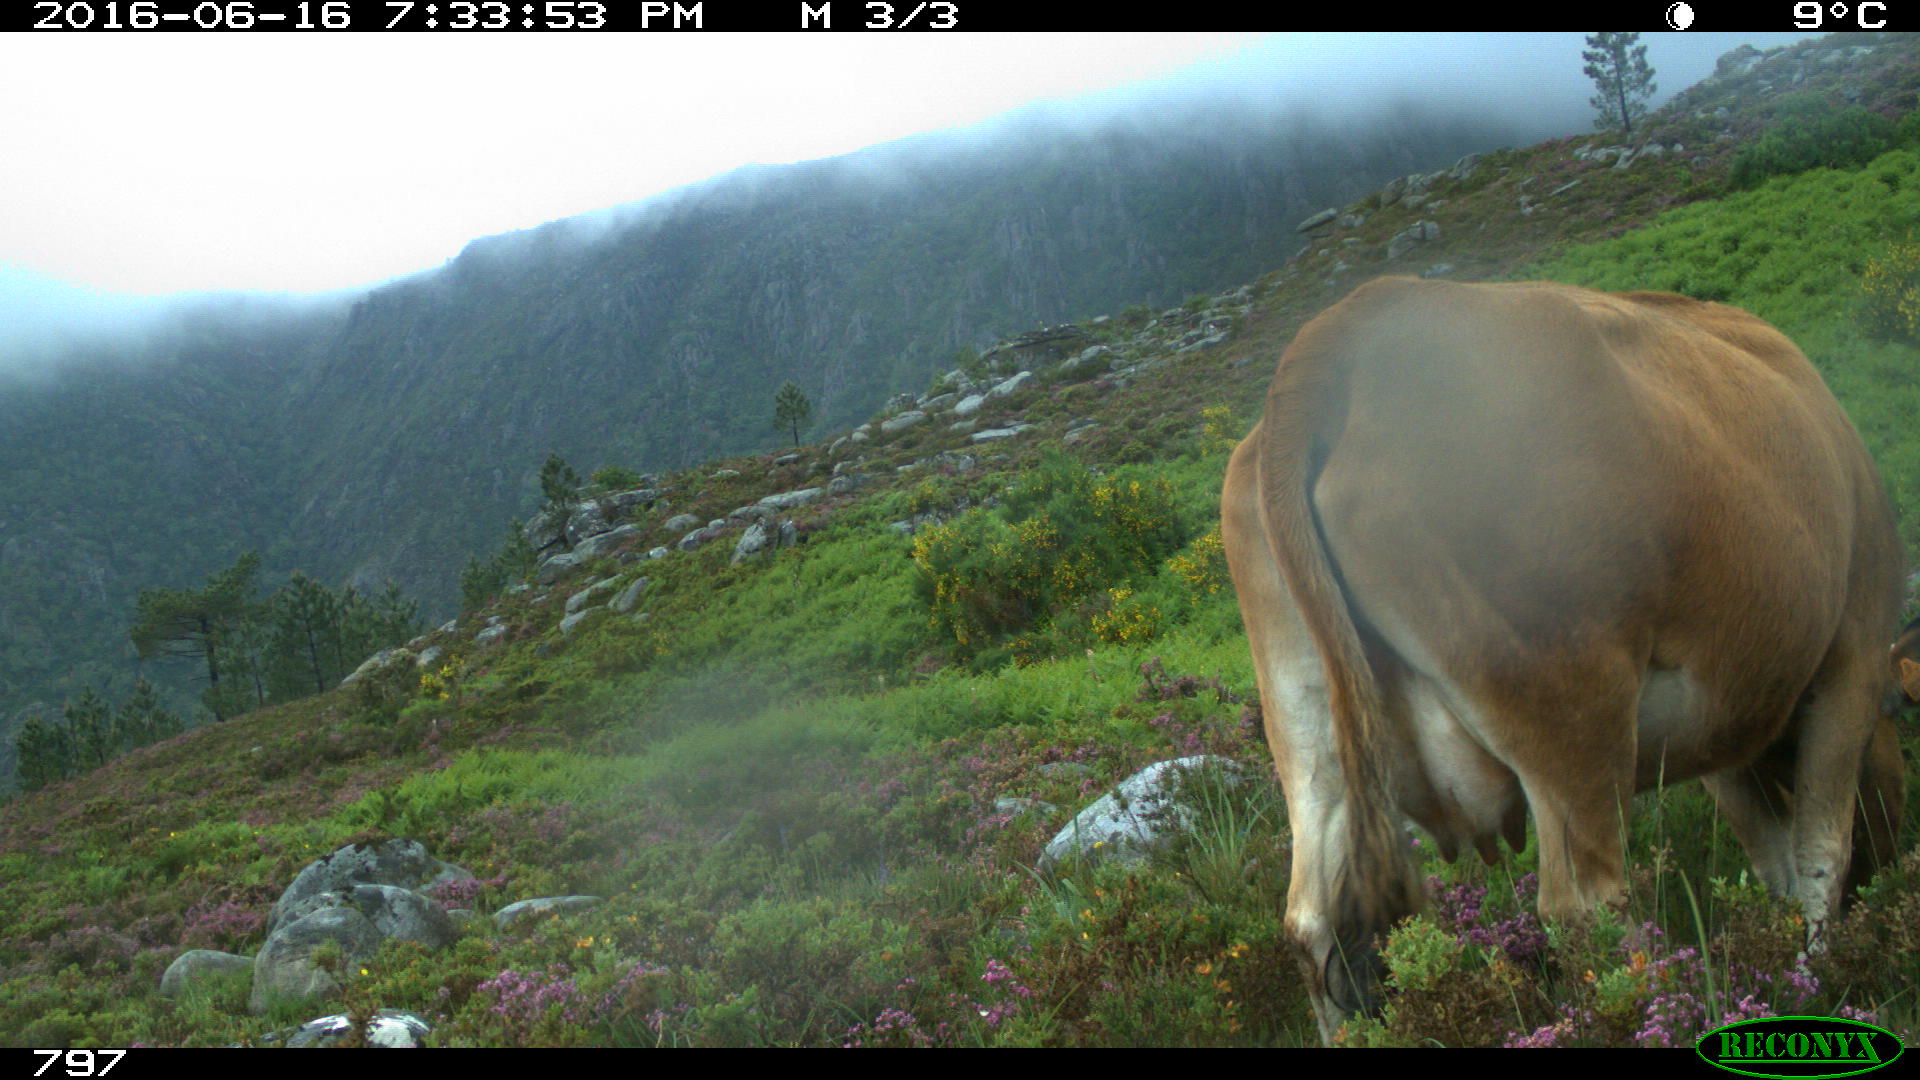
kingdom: Animalia
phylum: Chordata
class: Mammalia
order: Artiodactyla
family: Bovidae
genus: Bos
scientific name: Bos taurus
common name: Domesticated cattle
